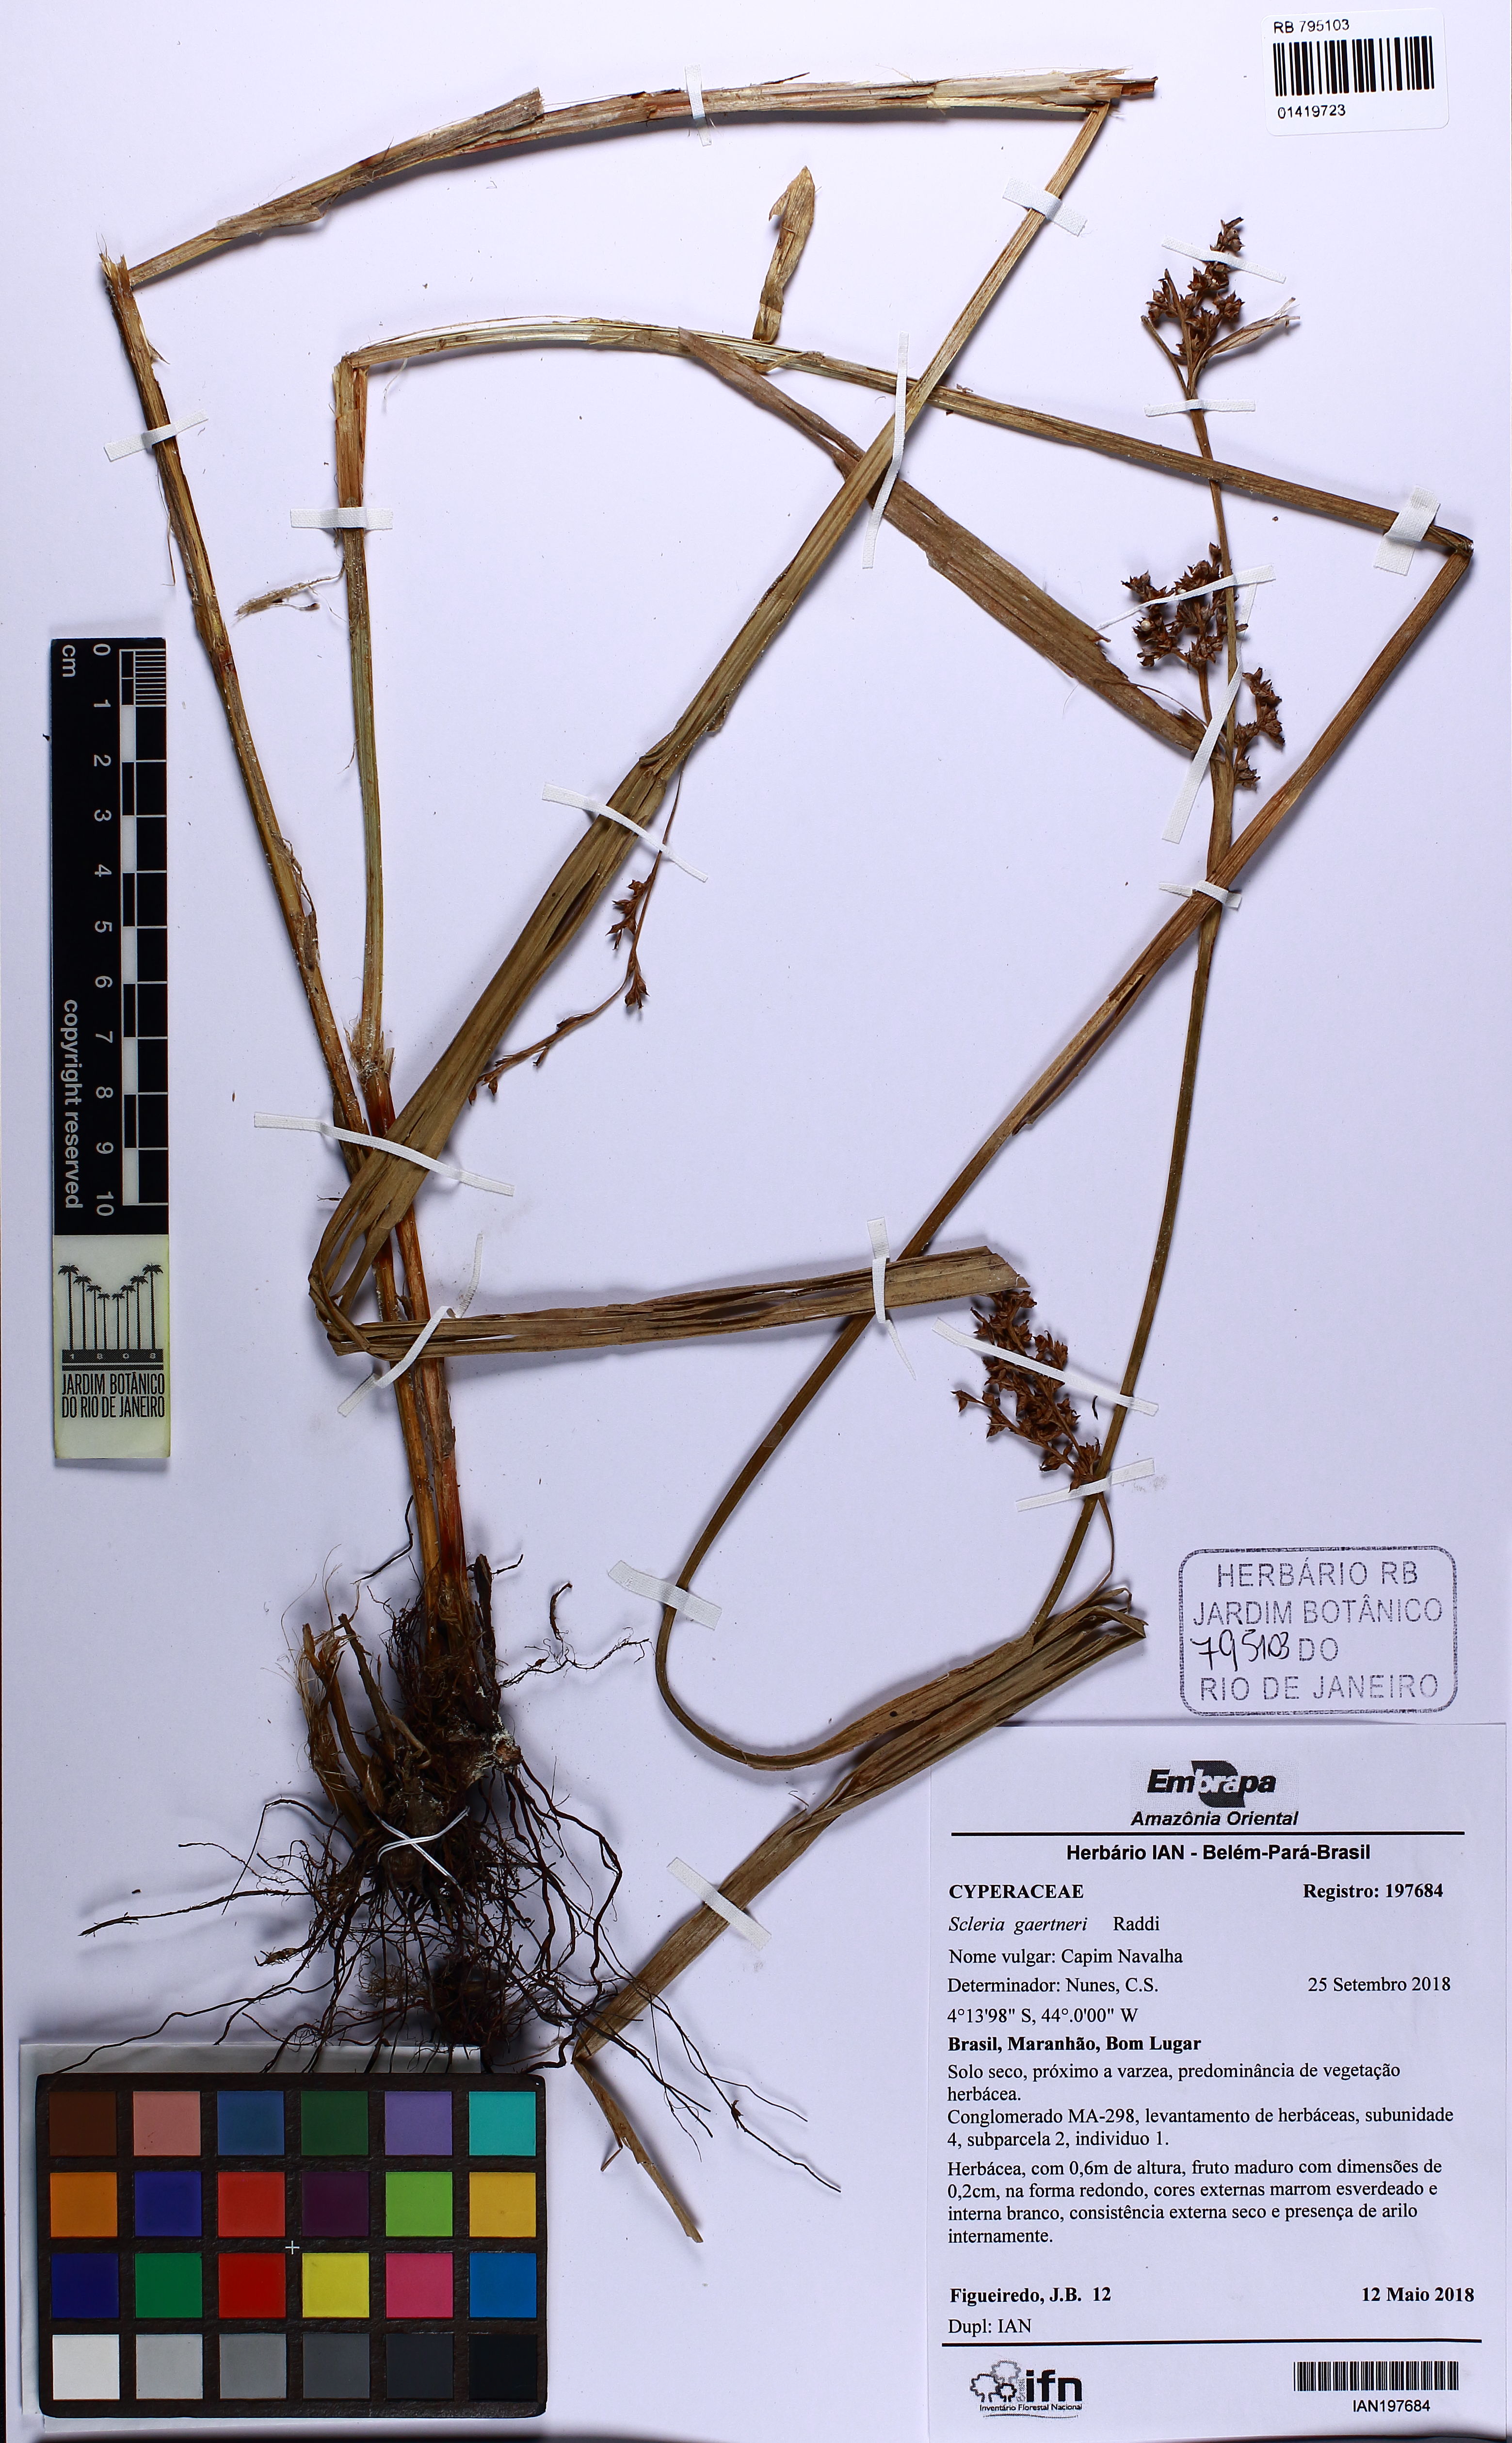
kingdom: Plantae
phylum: Tracheophyta
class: Liliopsida
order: Poales
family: Cyperaceae
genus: Scleria
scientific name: Scleria gaertneri
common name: Cortadera blanca
